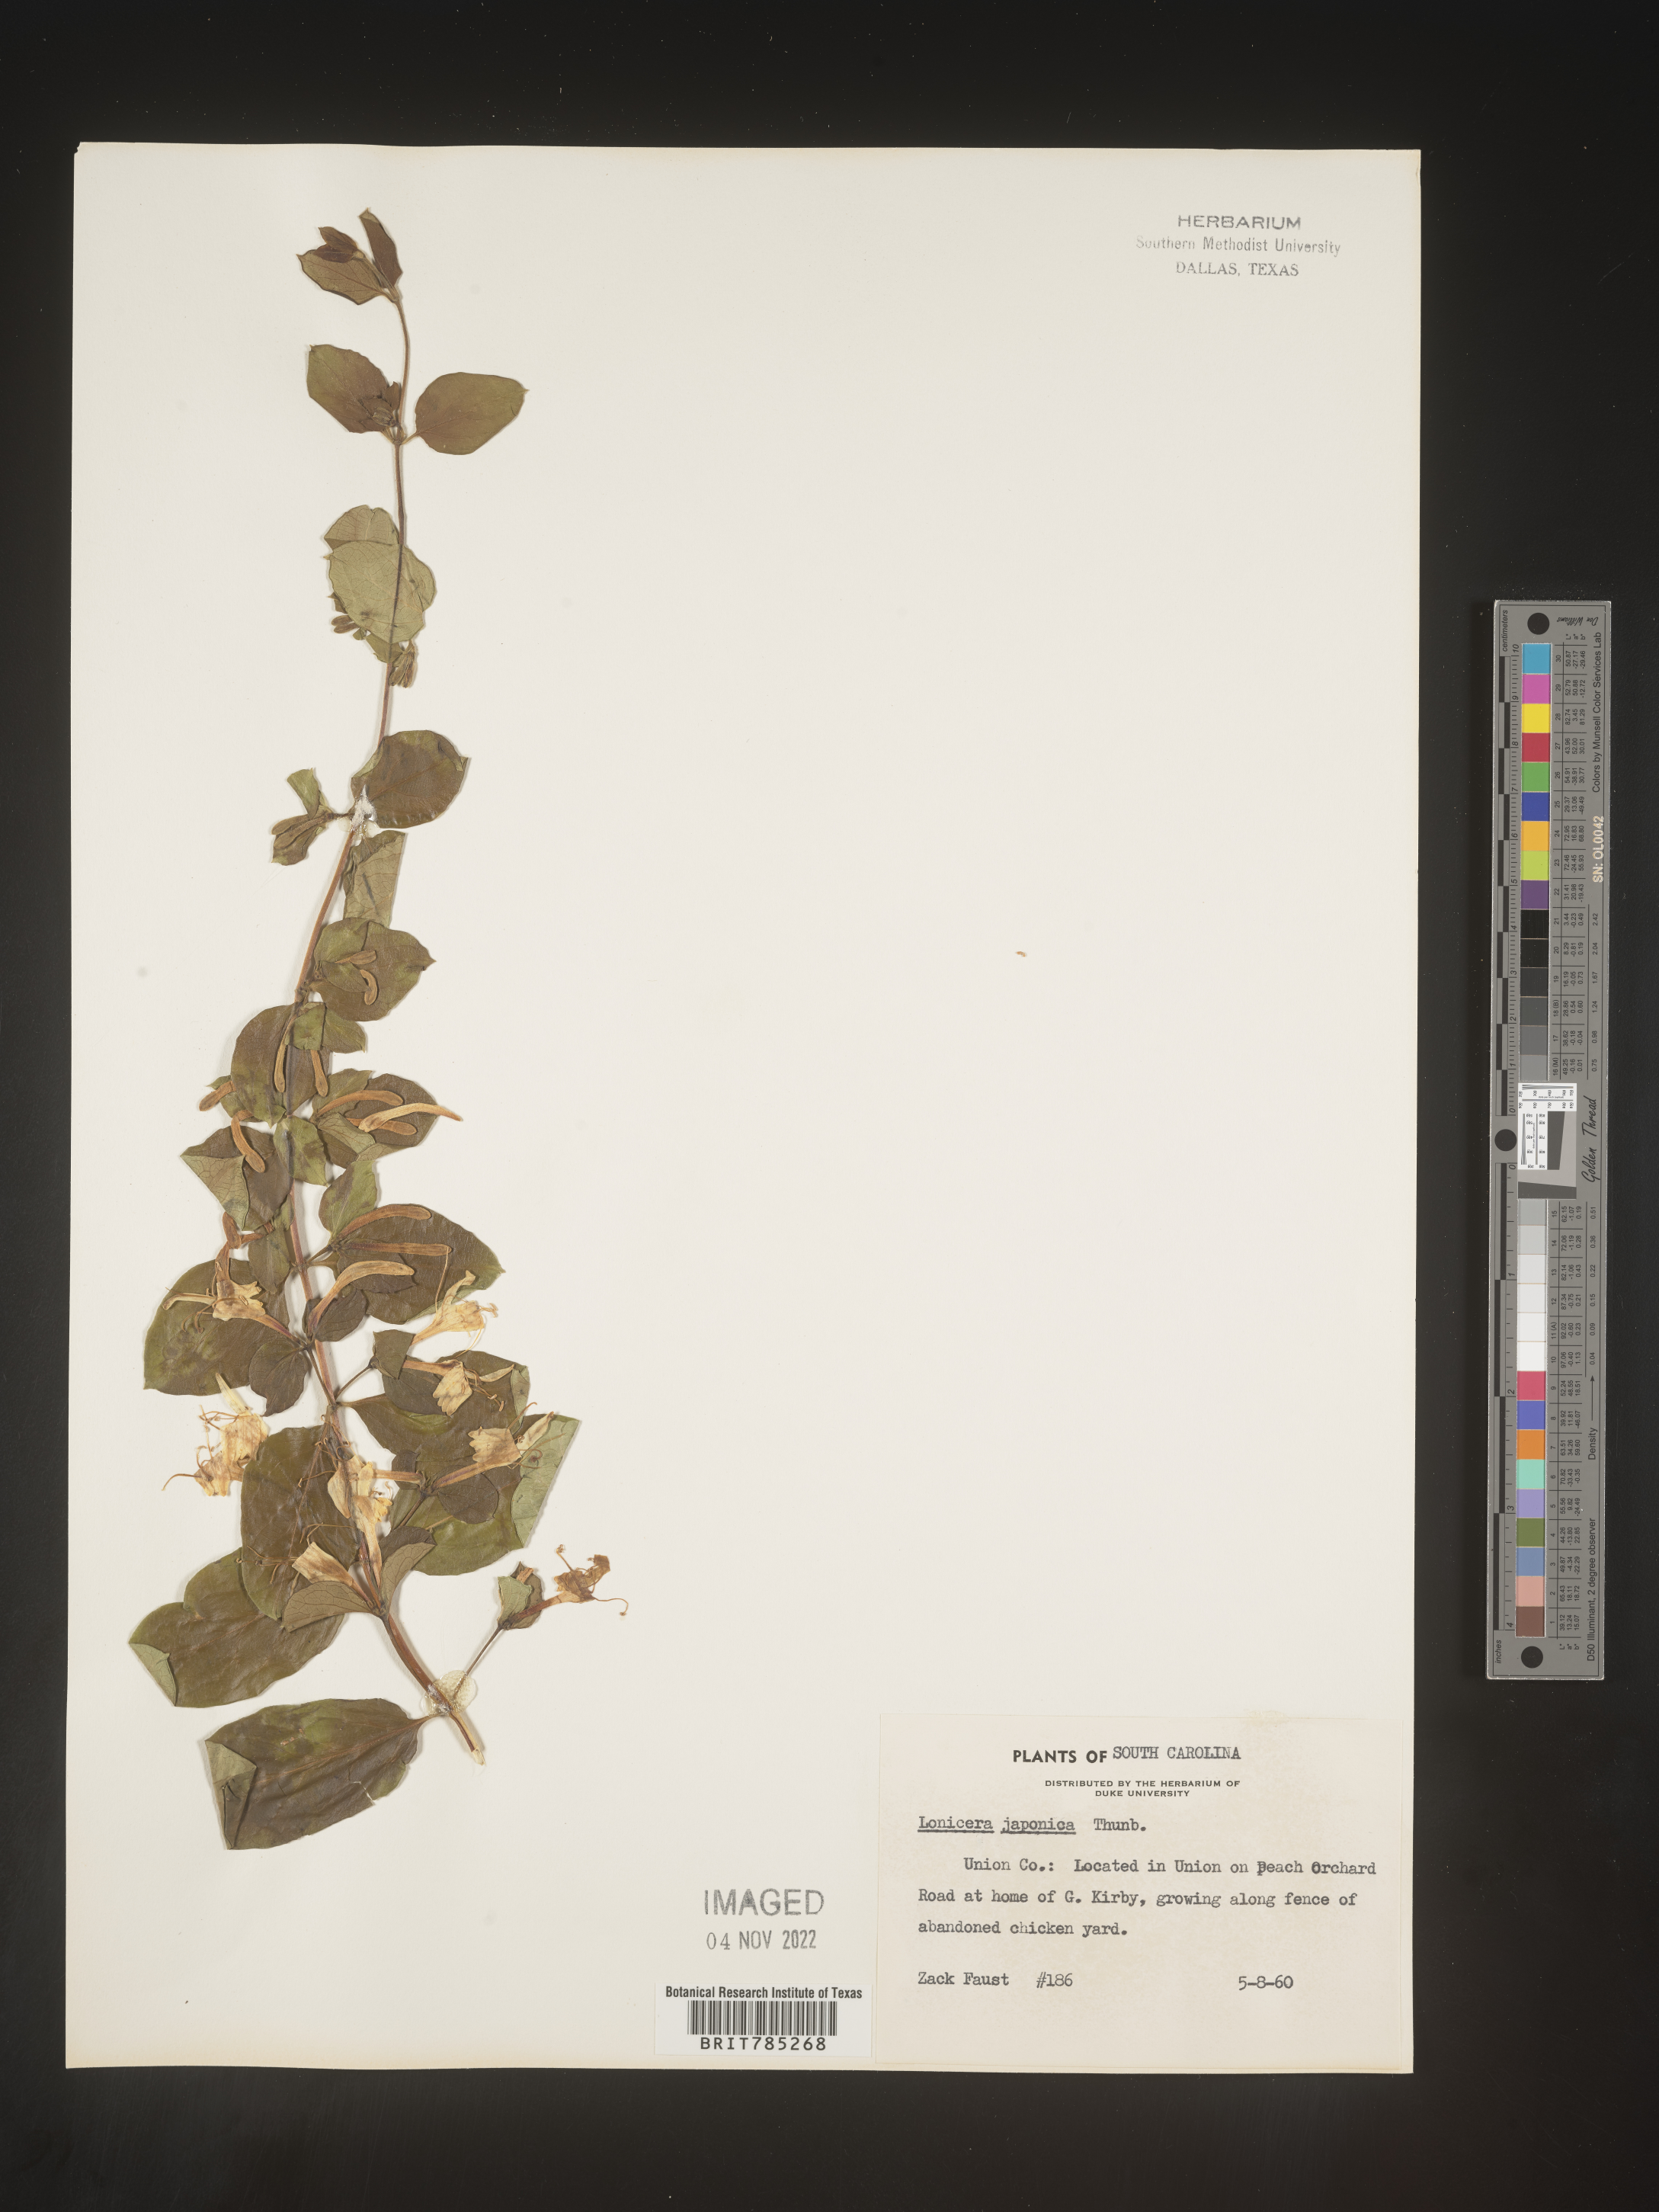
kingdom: Plantae
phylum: Tracheophyta
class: Magnoliopsida
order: Dipsacales
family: Caprifoliaceae
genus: Lonicera
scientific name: Lonicera japonica
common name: Japanese honeysuckle
